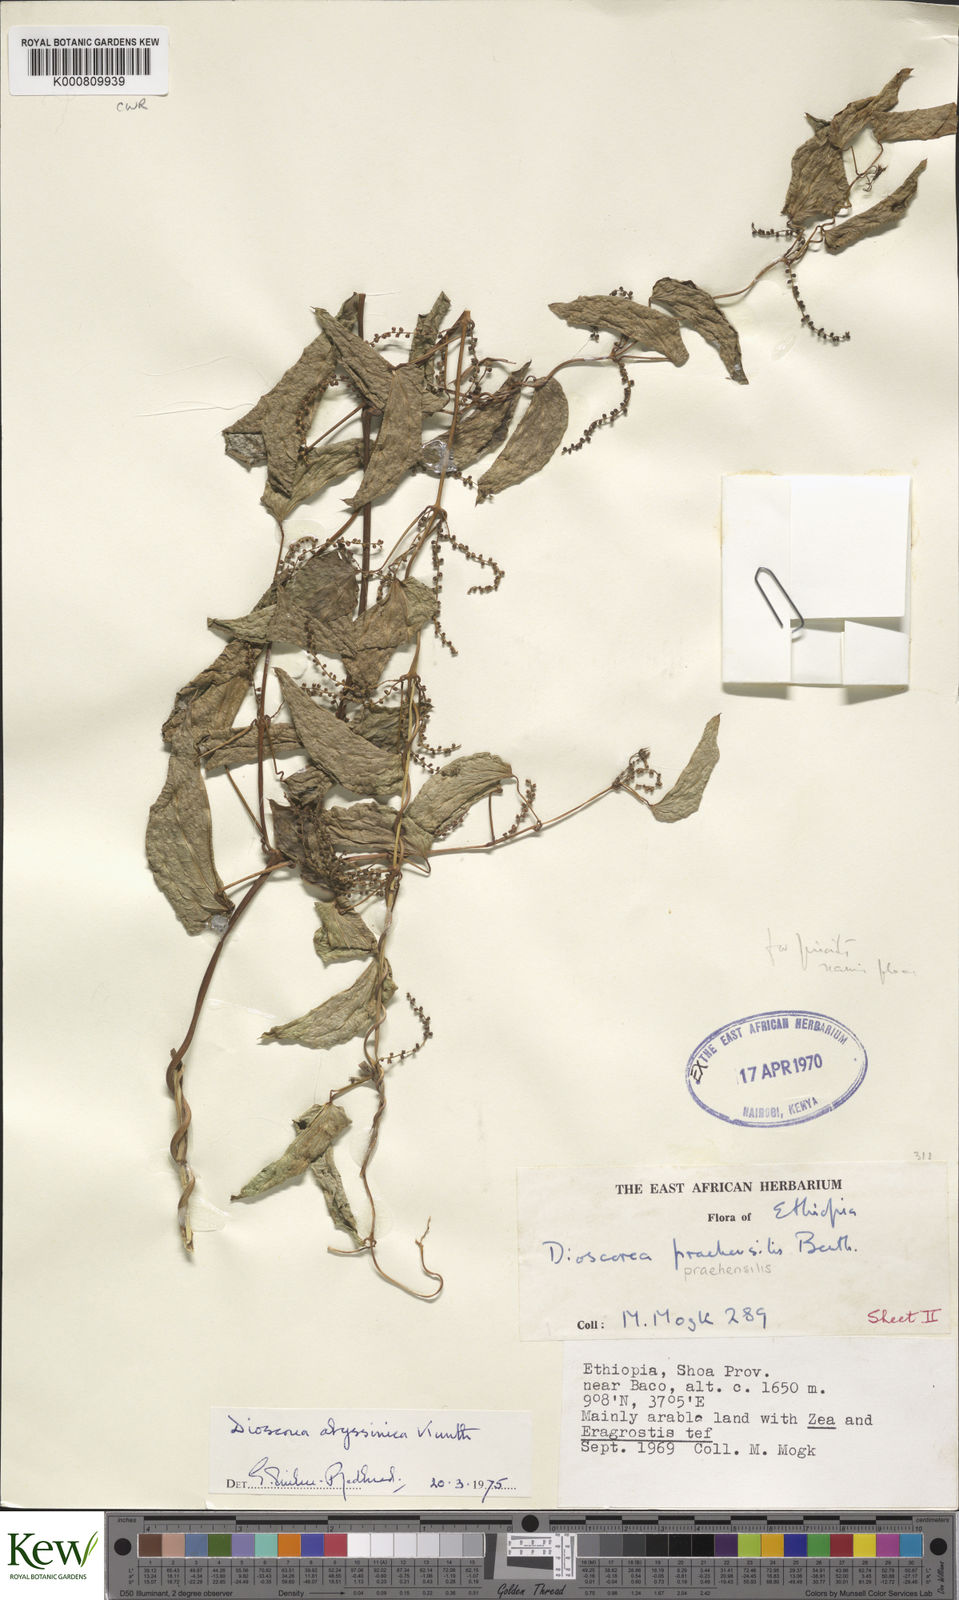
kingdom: Plantae
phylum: Tracheophyta
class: Liliopsida
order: Dioscoreales
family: Dioscoreaceae
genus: Dioscorea
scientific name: Dioscorea abyssinica
